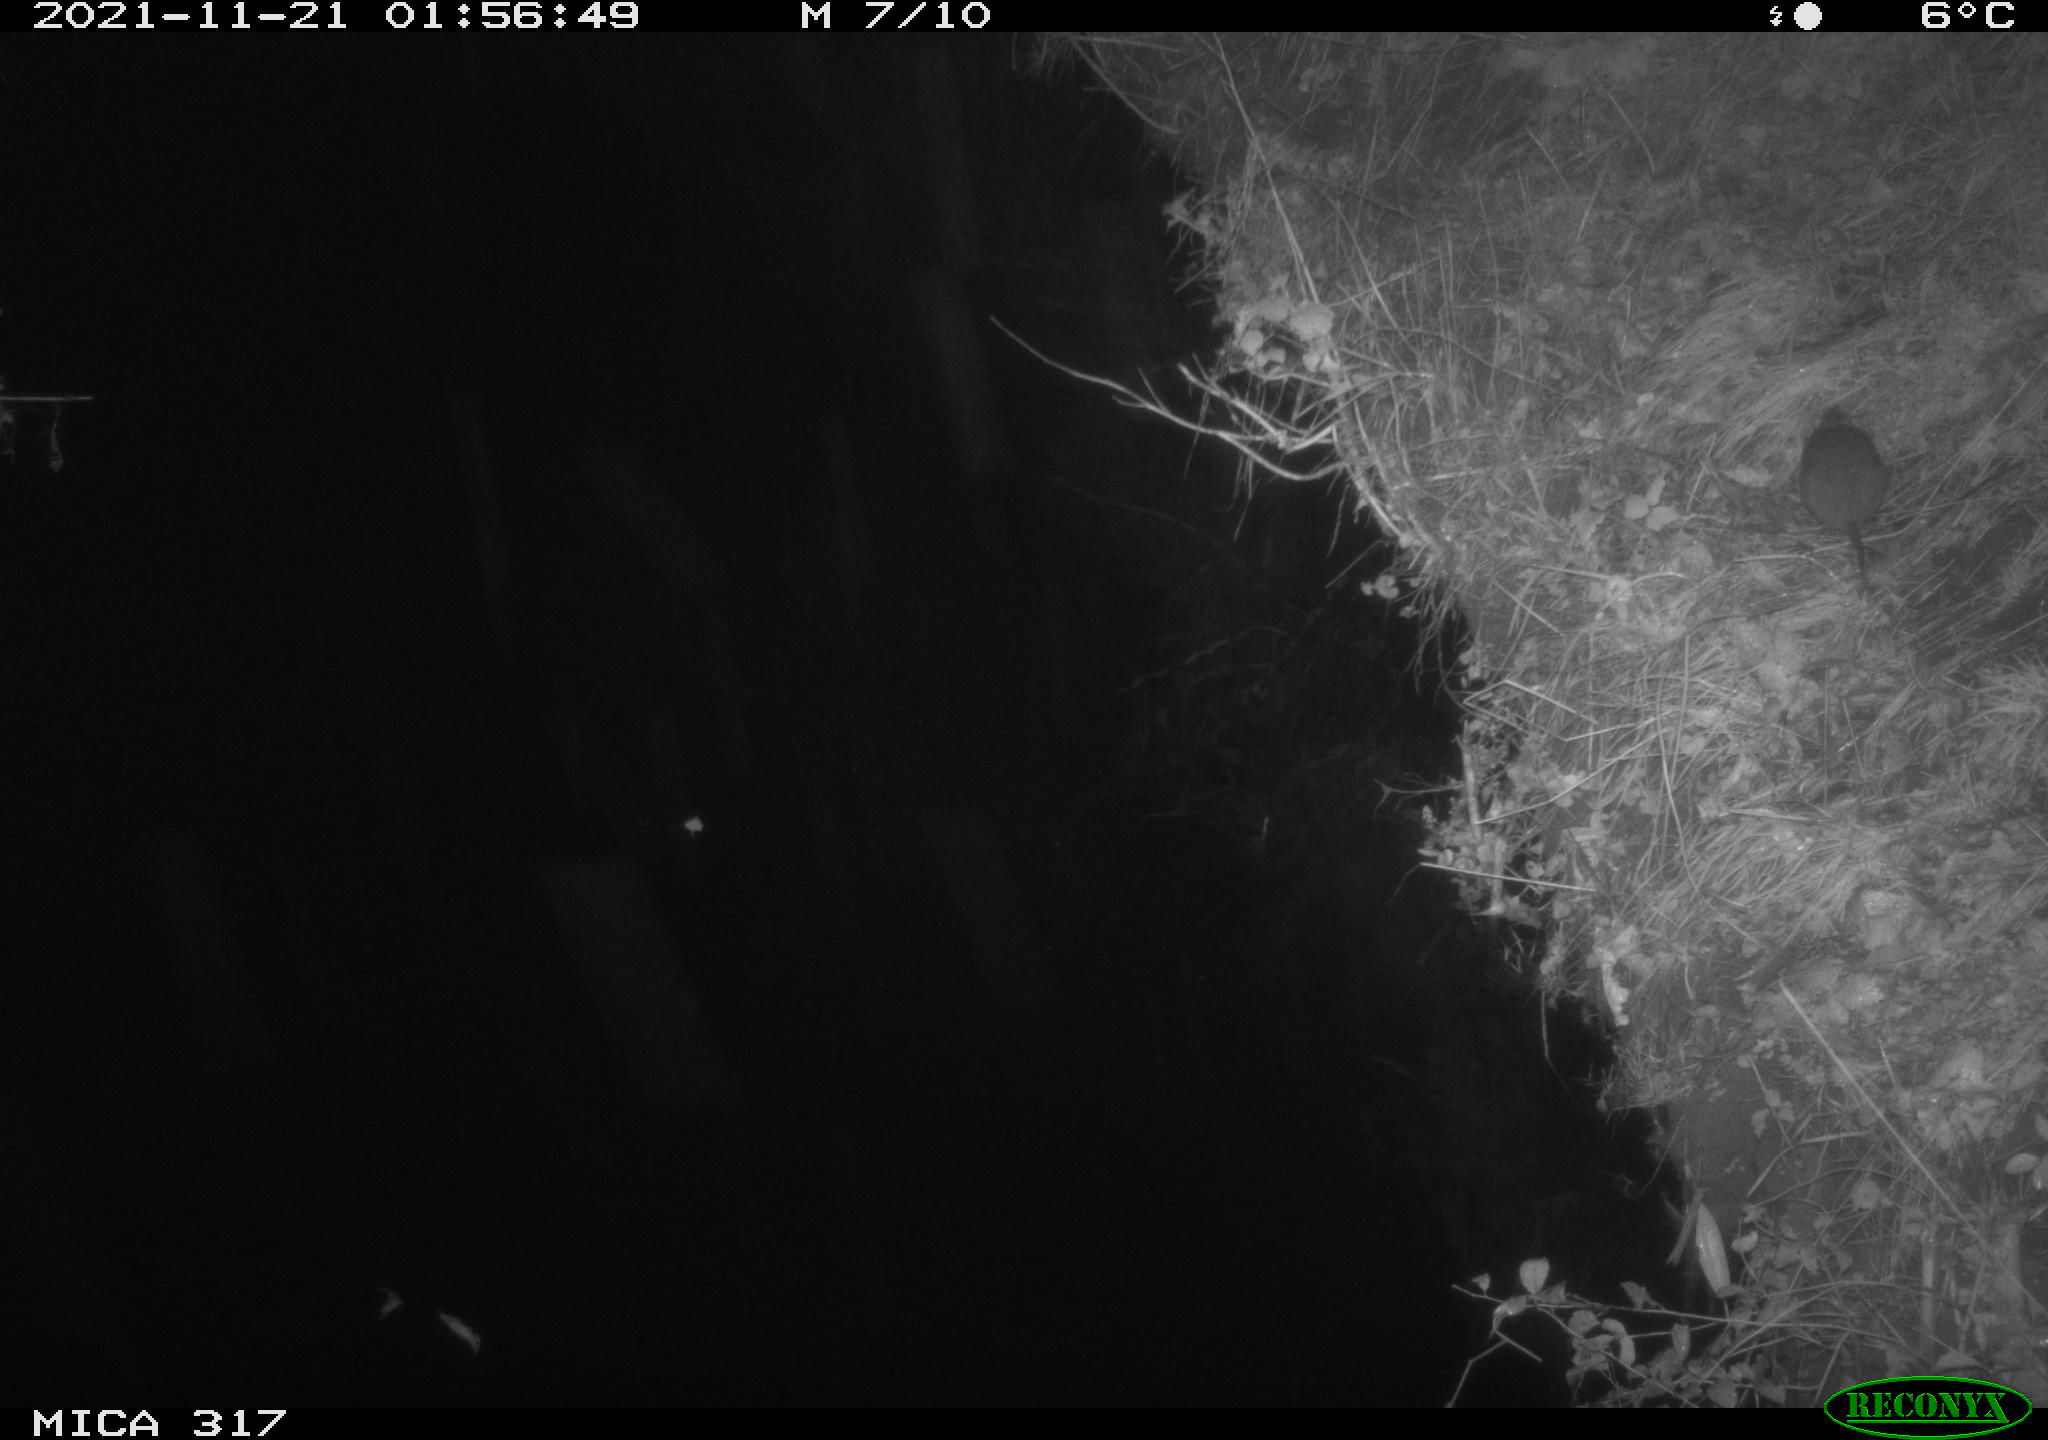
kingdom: Animalia
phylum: Chordata
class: Mammalia
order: Rodentia
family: Muridae
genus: Rattus
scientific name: Rattus norvegicus
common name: Brown rat
